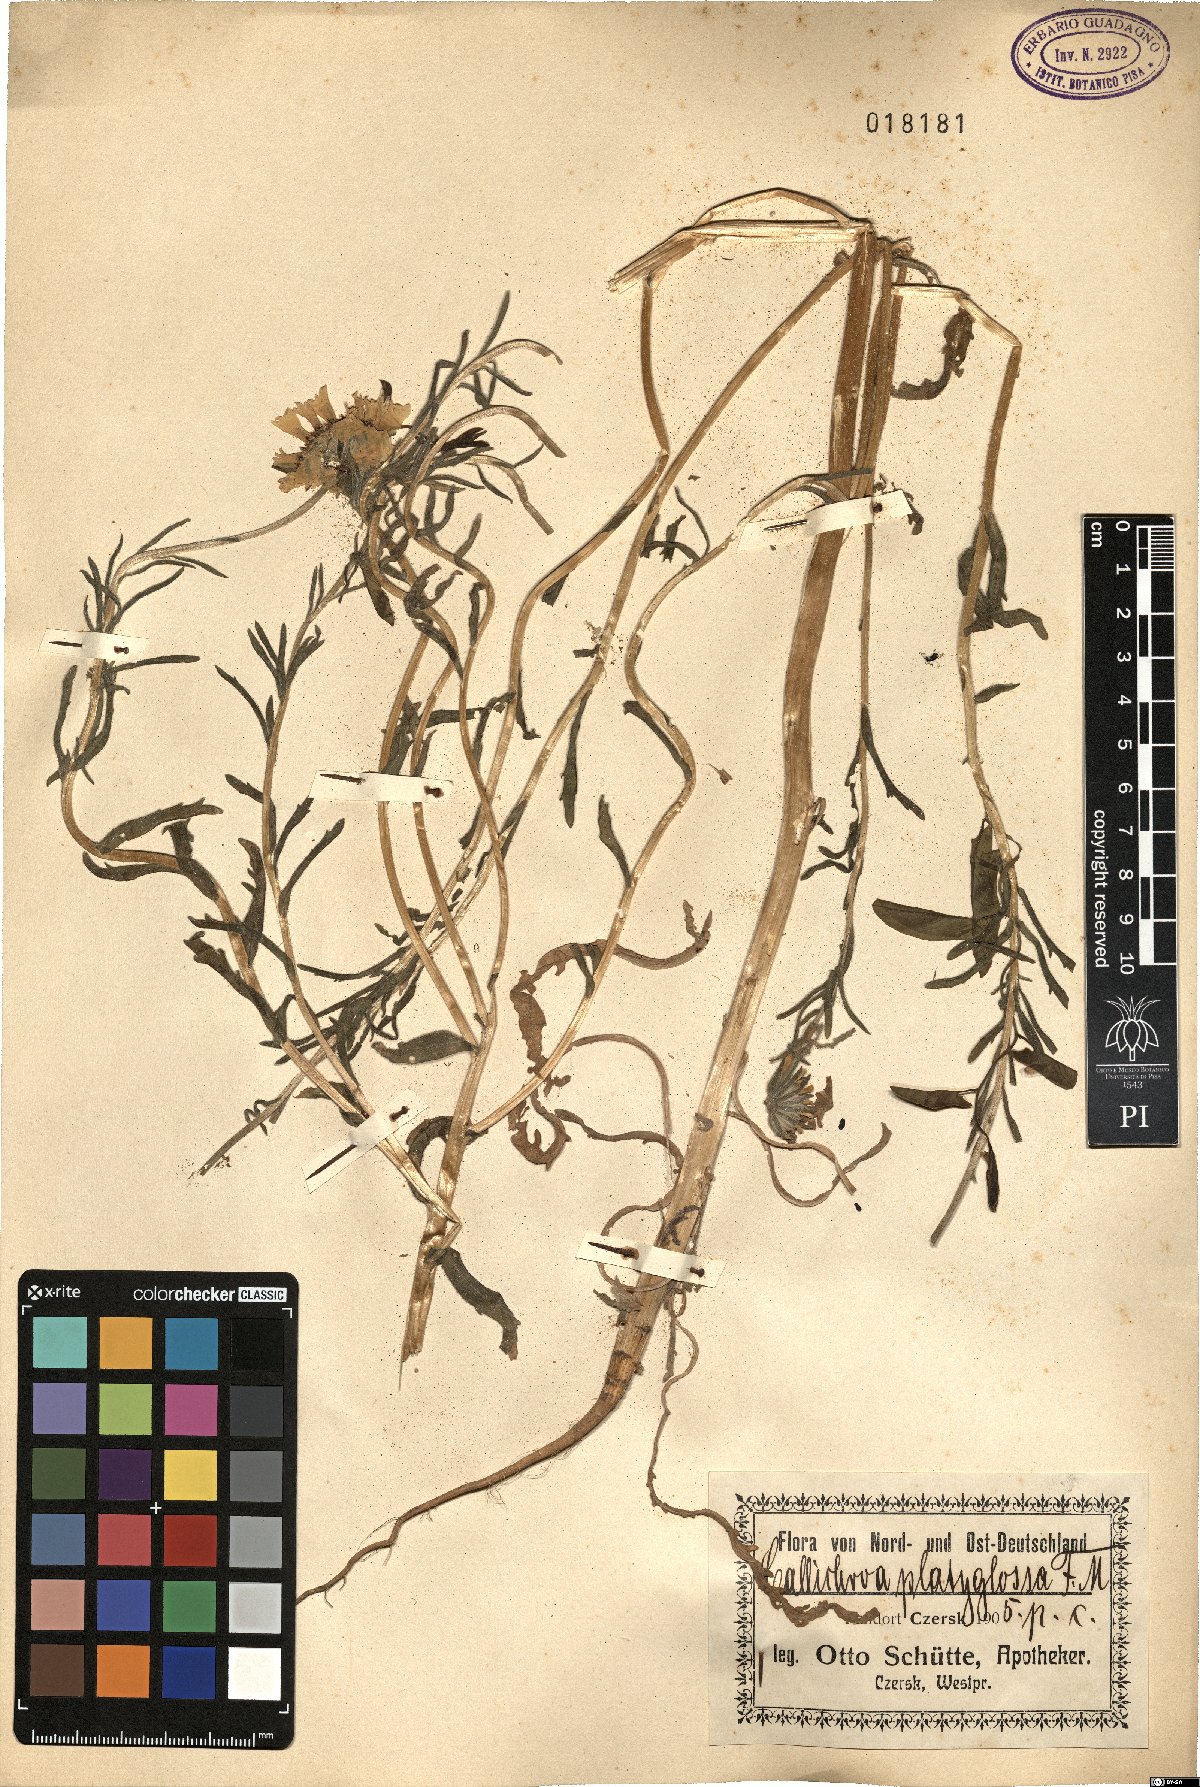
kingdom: Plantae
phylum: Tracheophyta
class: Magnoliopsida
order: Asterales
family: Asteraceae
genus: Layia
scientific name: Layia platyglossa
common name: Tidy-tips
